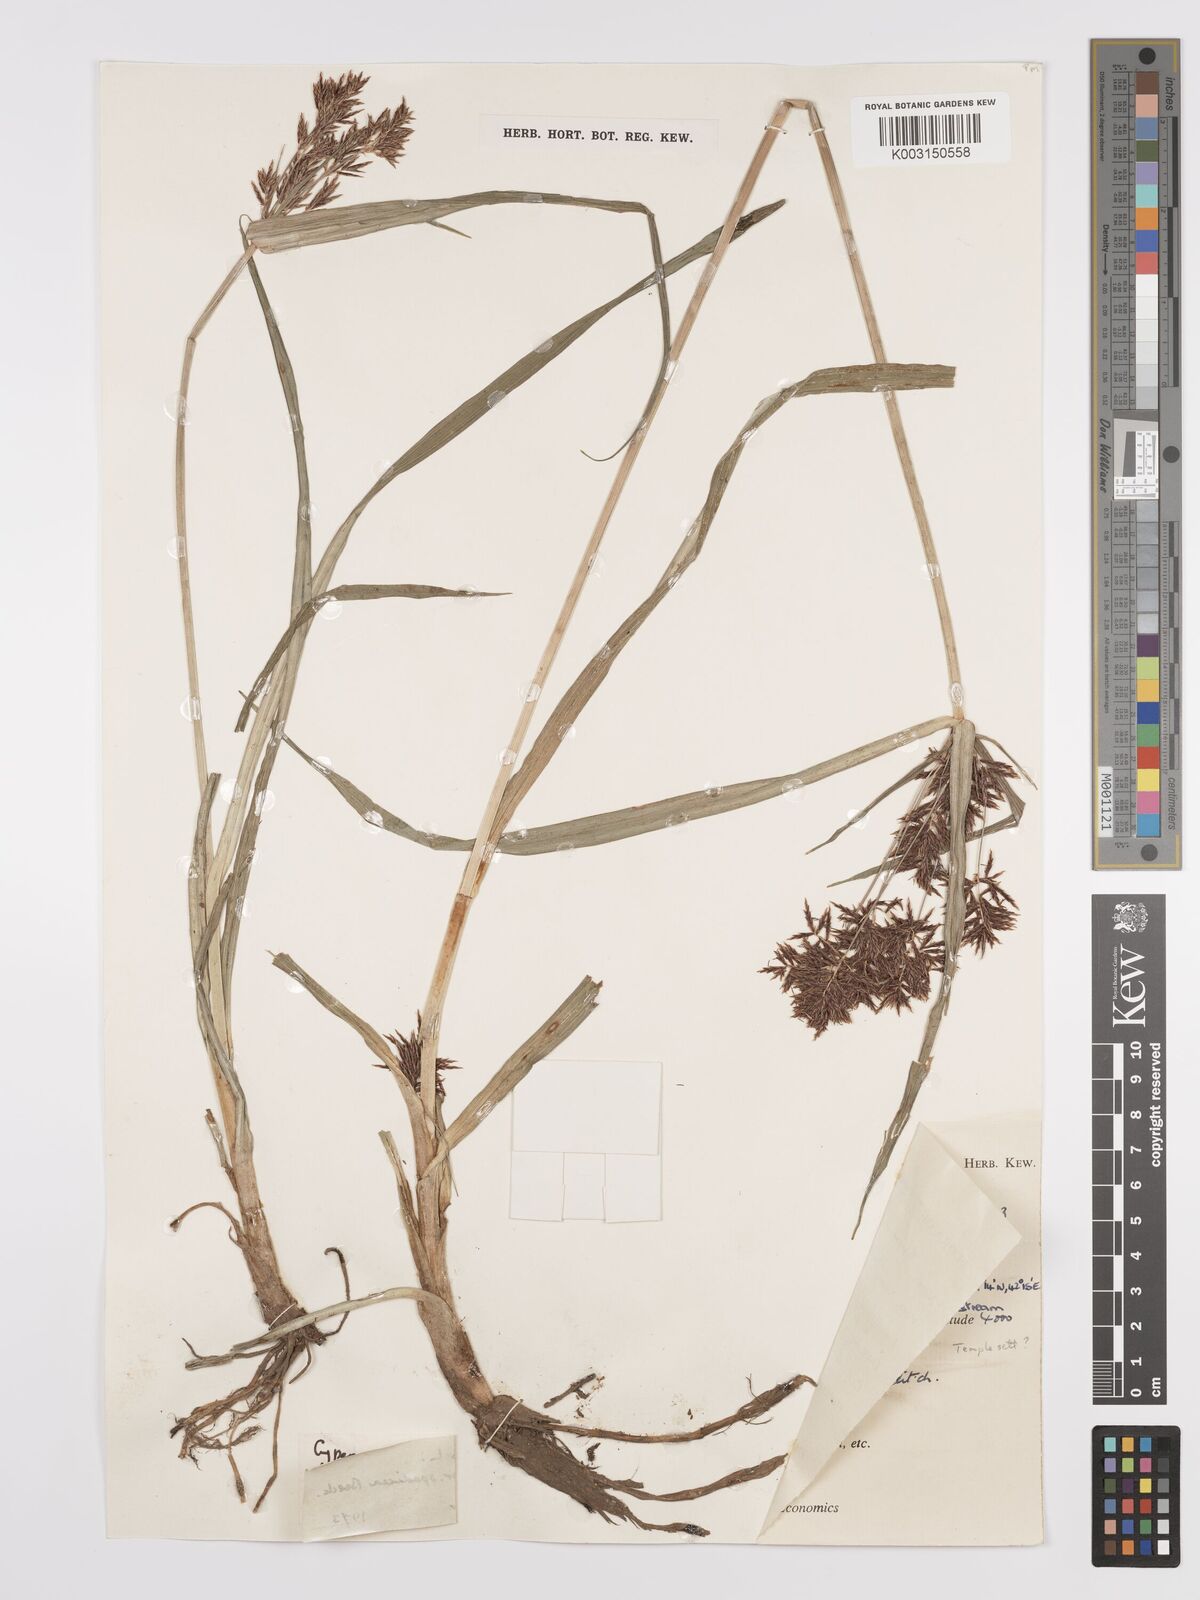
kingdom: Plantae
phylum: Tracheophyta
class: Liliopsida
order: Poales
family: Cyperaceae
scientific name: Cyperaceae
